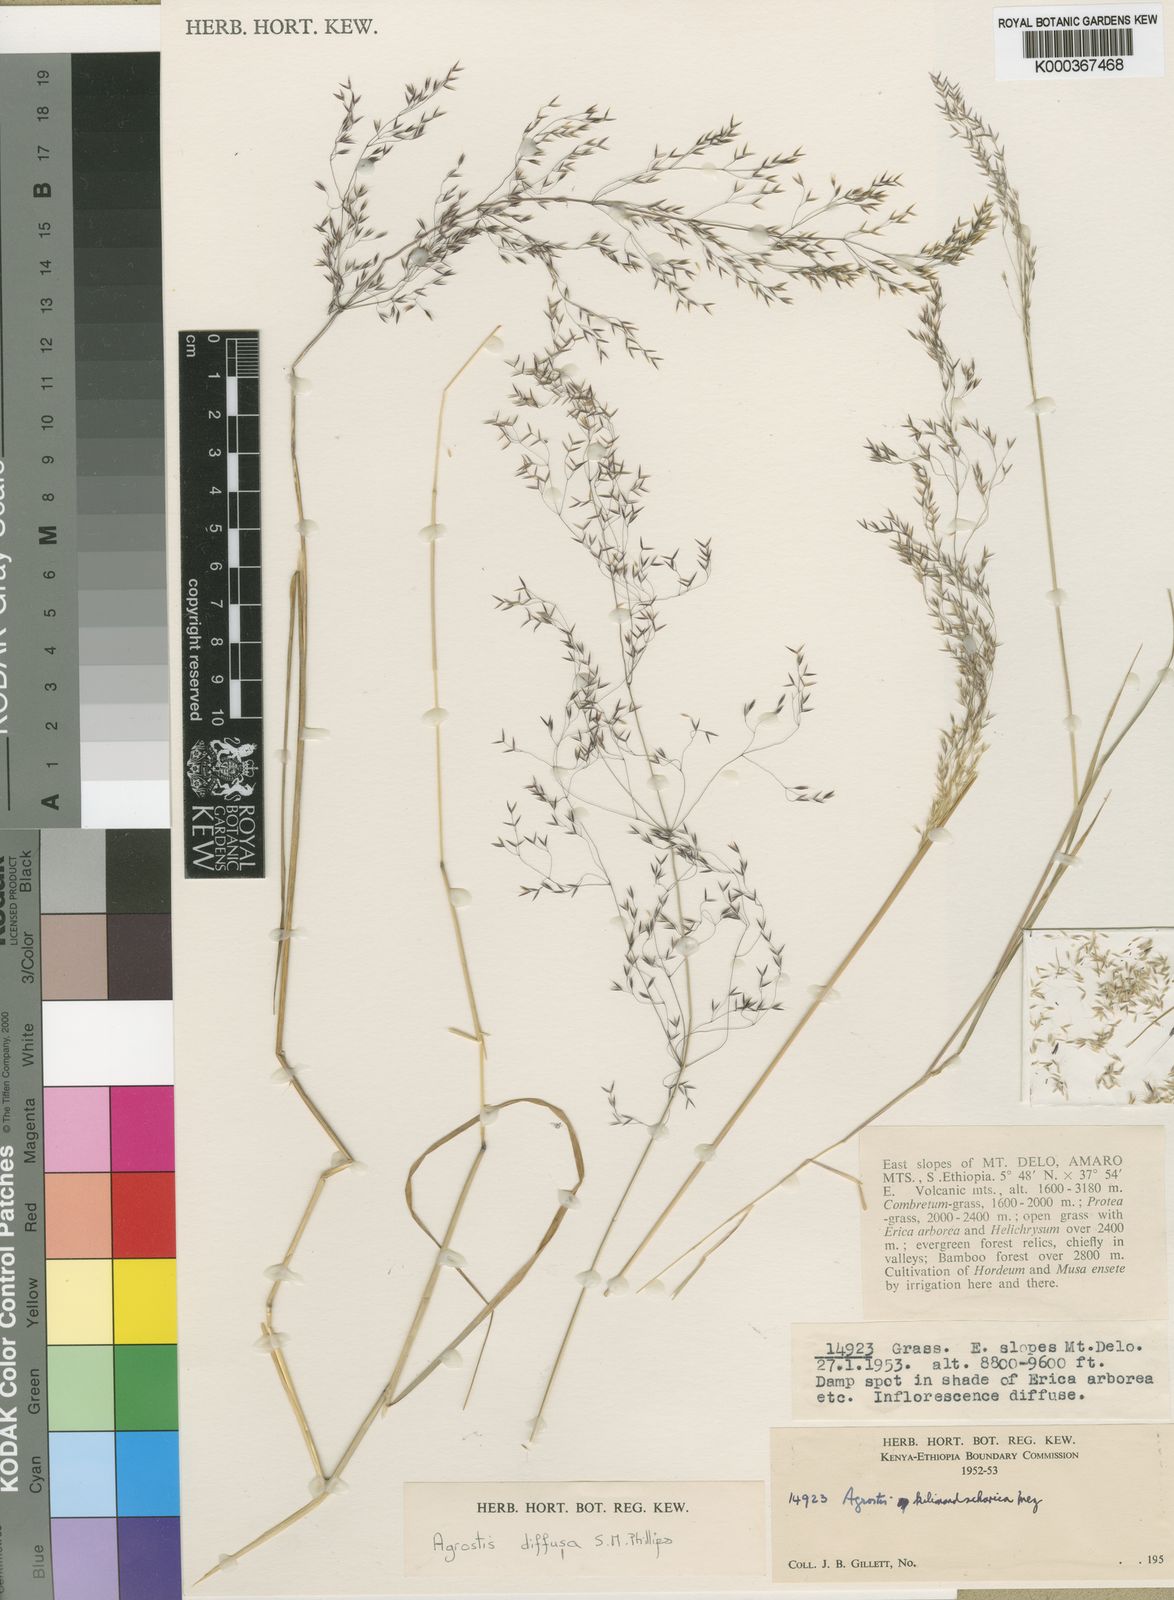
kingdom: Plantae
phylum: Tracheophyta
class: Liliopsida
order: Poales
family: Poaceae
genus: Agrostis
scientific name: Agrostis diffusa
